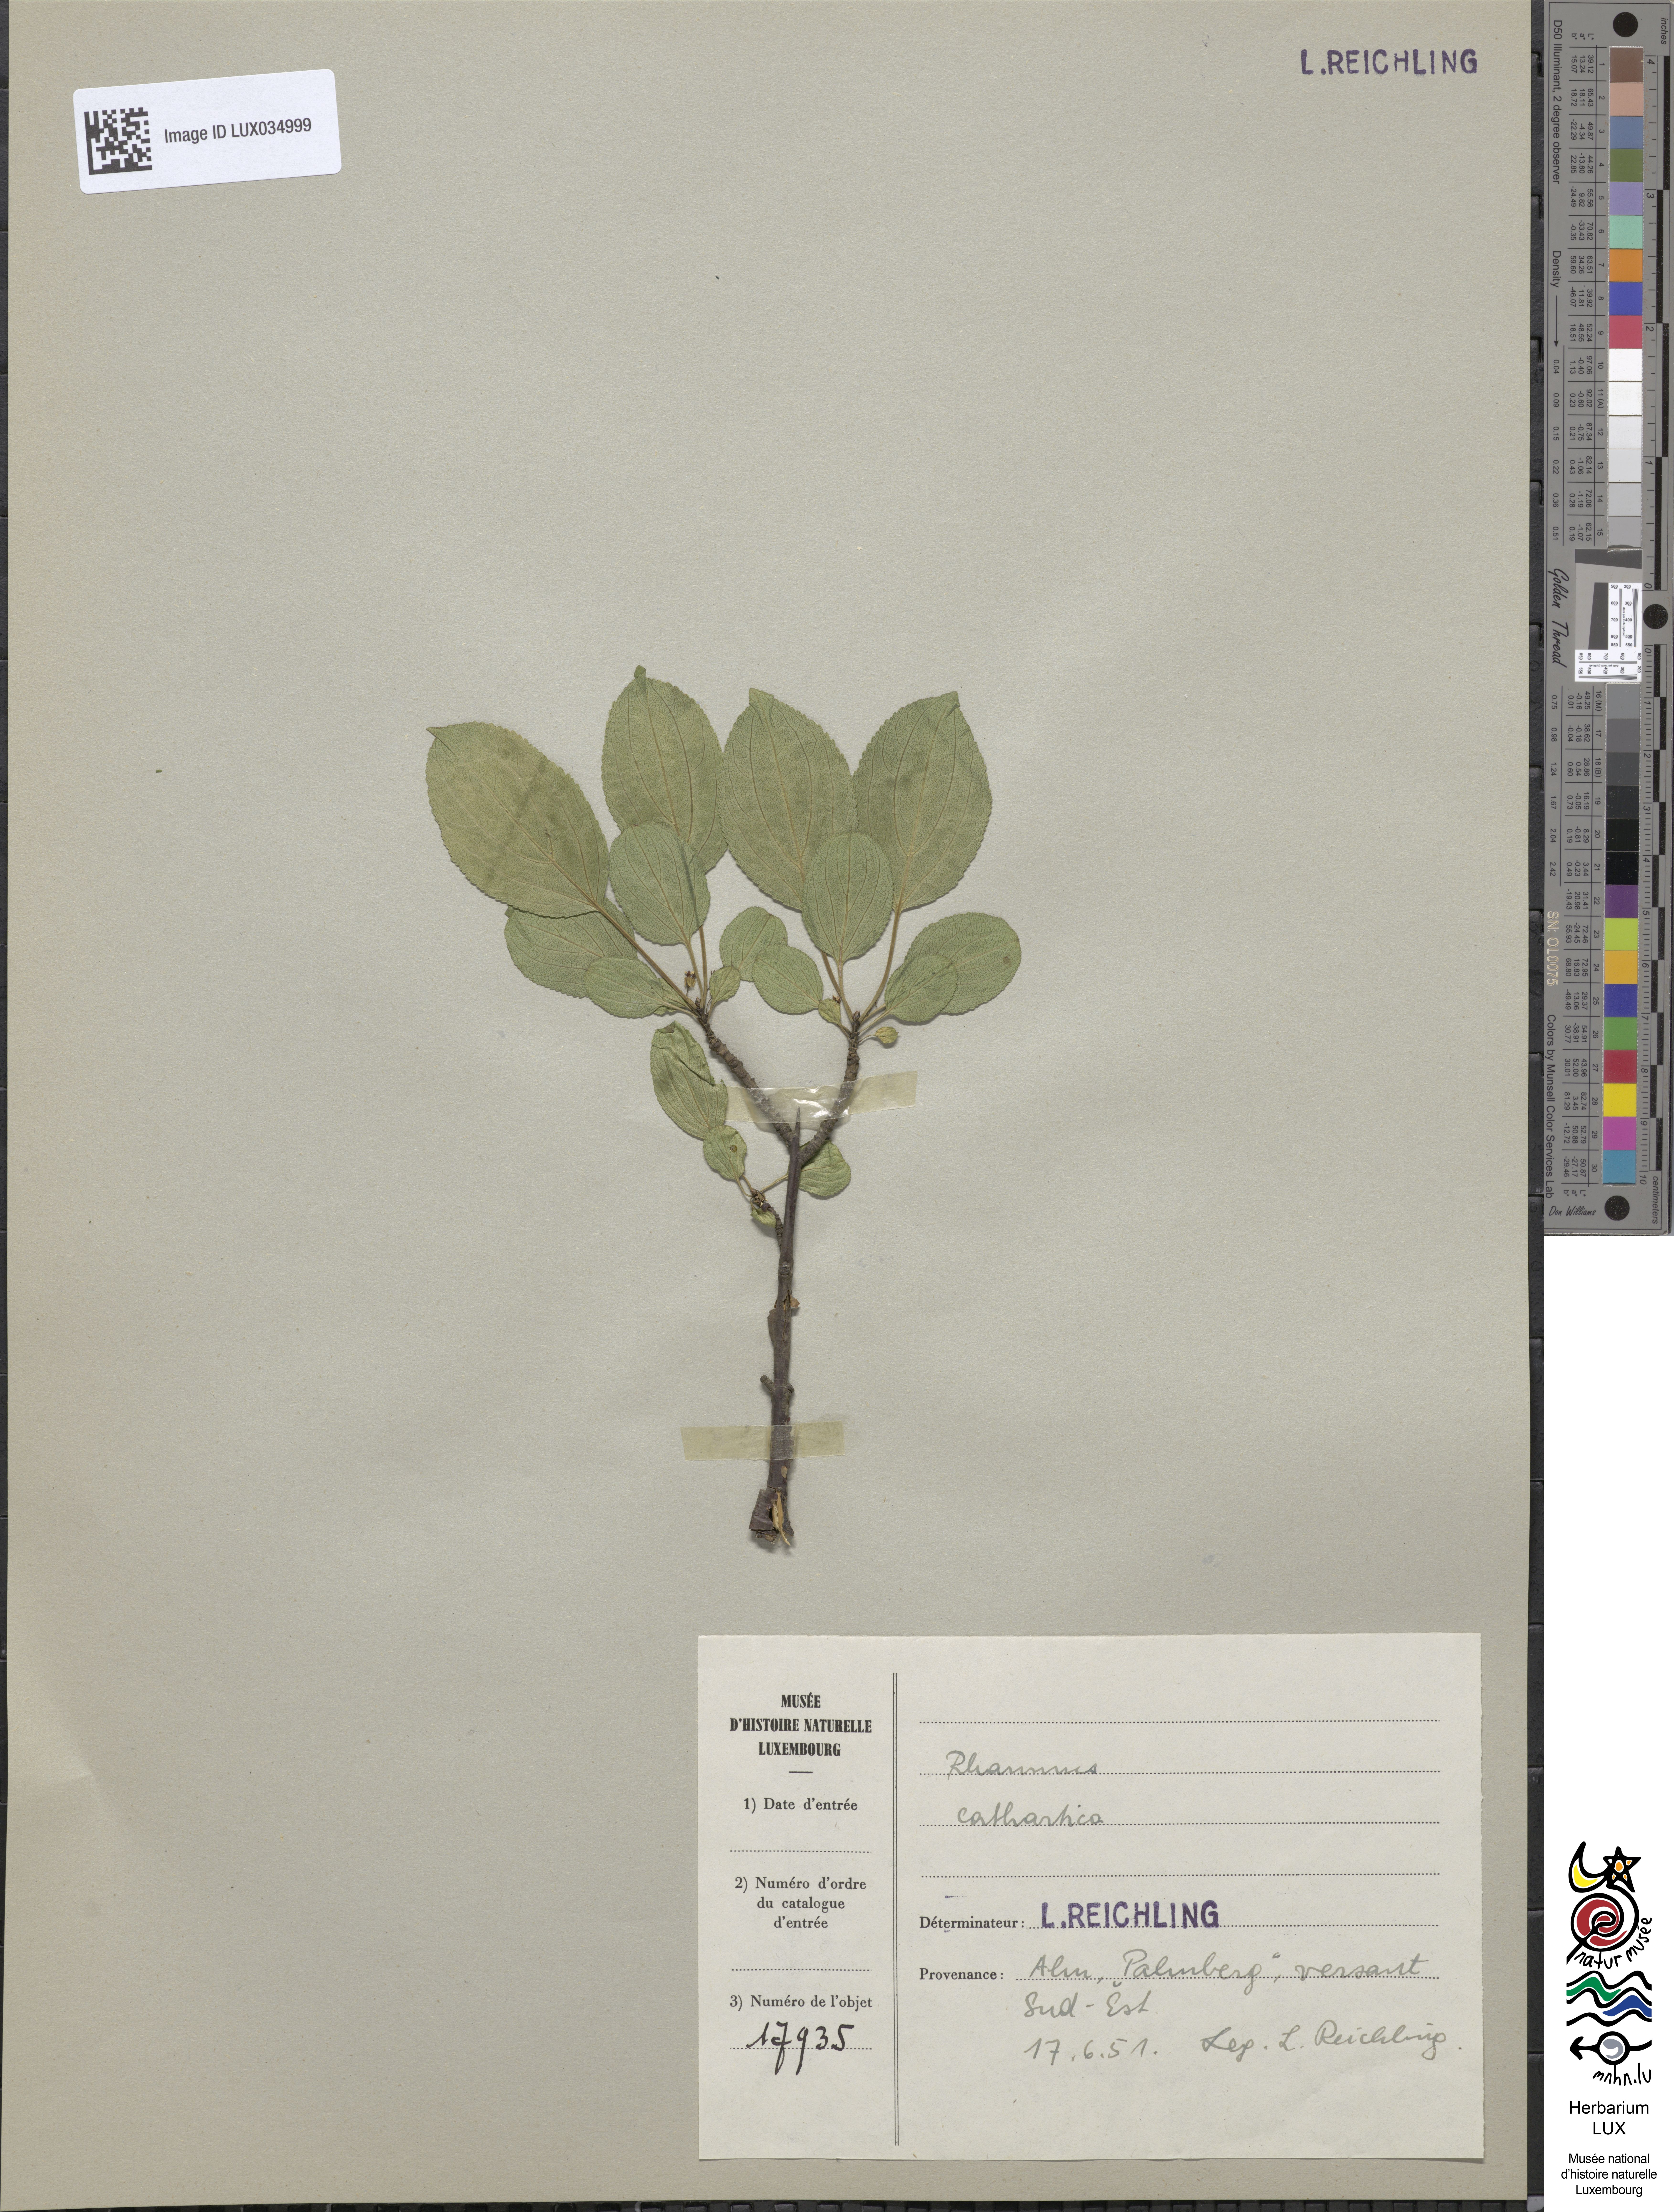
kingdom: Plantae
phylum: Tracheophyta
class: Magnoliopsida
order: Rosales
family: Rhamnaceae
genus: Rhamnus
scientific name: Rhamnus cathartica
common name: Common buckthorn
